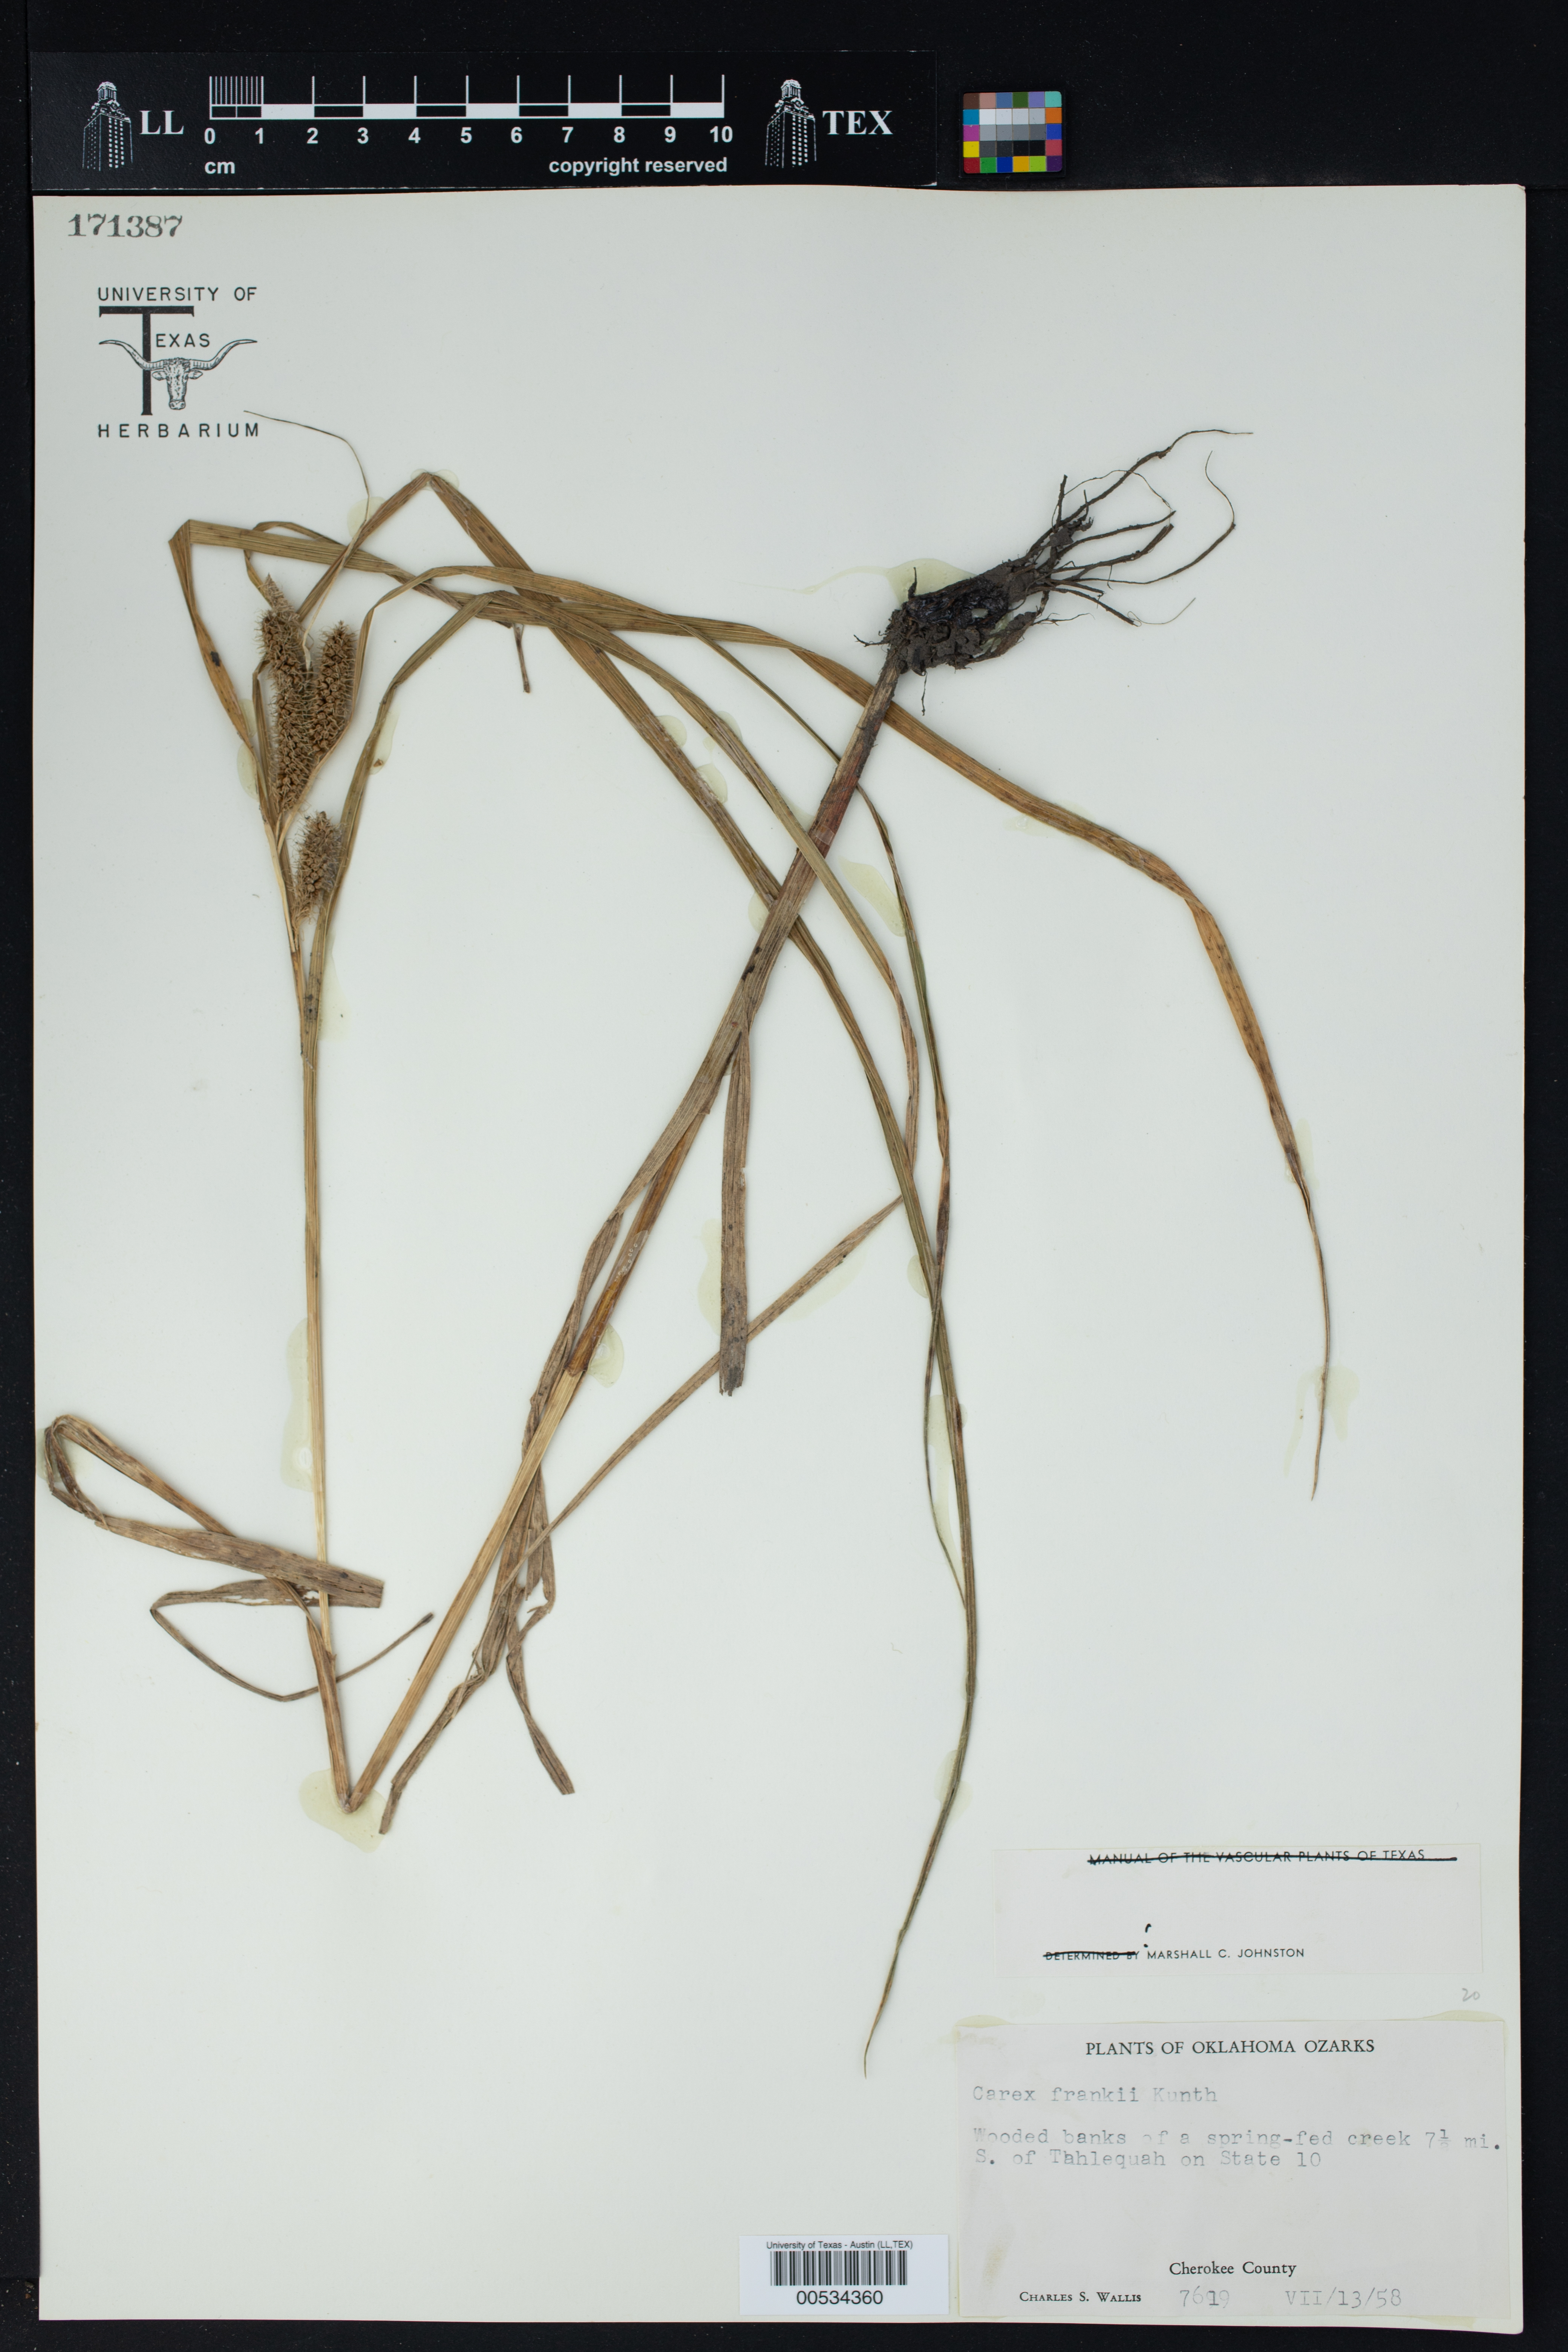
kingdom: Plantae
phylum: Tracheophyta
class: Liliopsida
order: Poales
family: Cyperaceae
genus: Carex
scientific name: Carex frankii
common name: Frank's sedge
